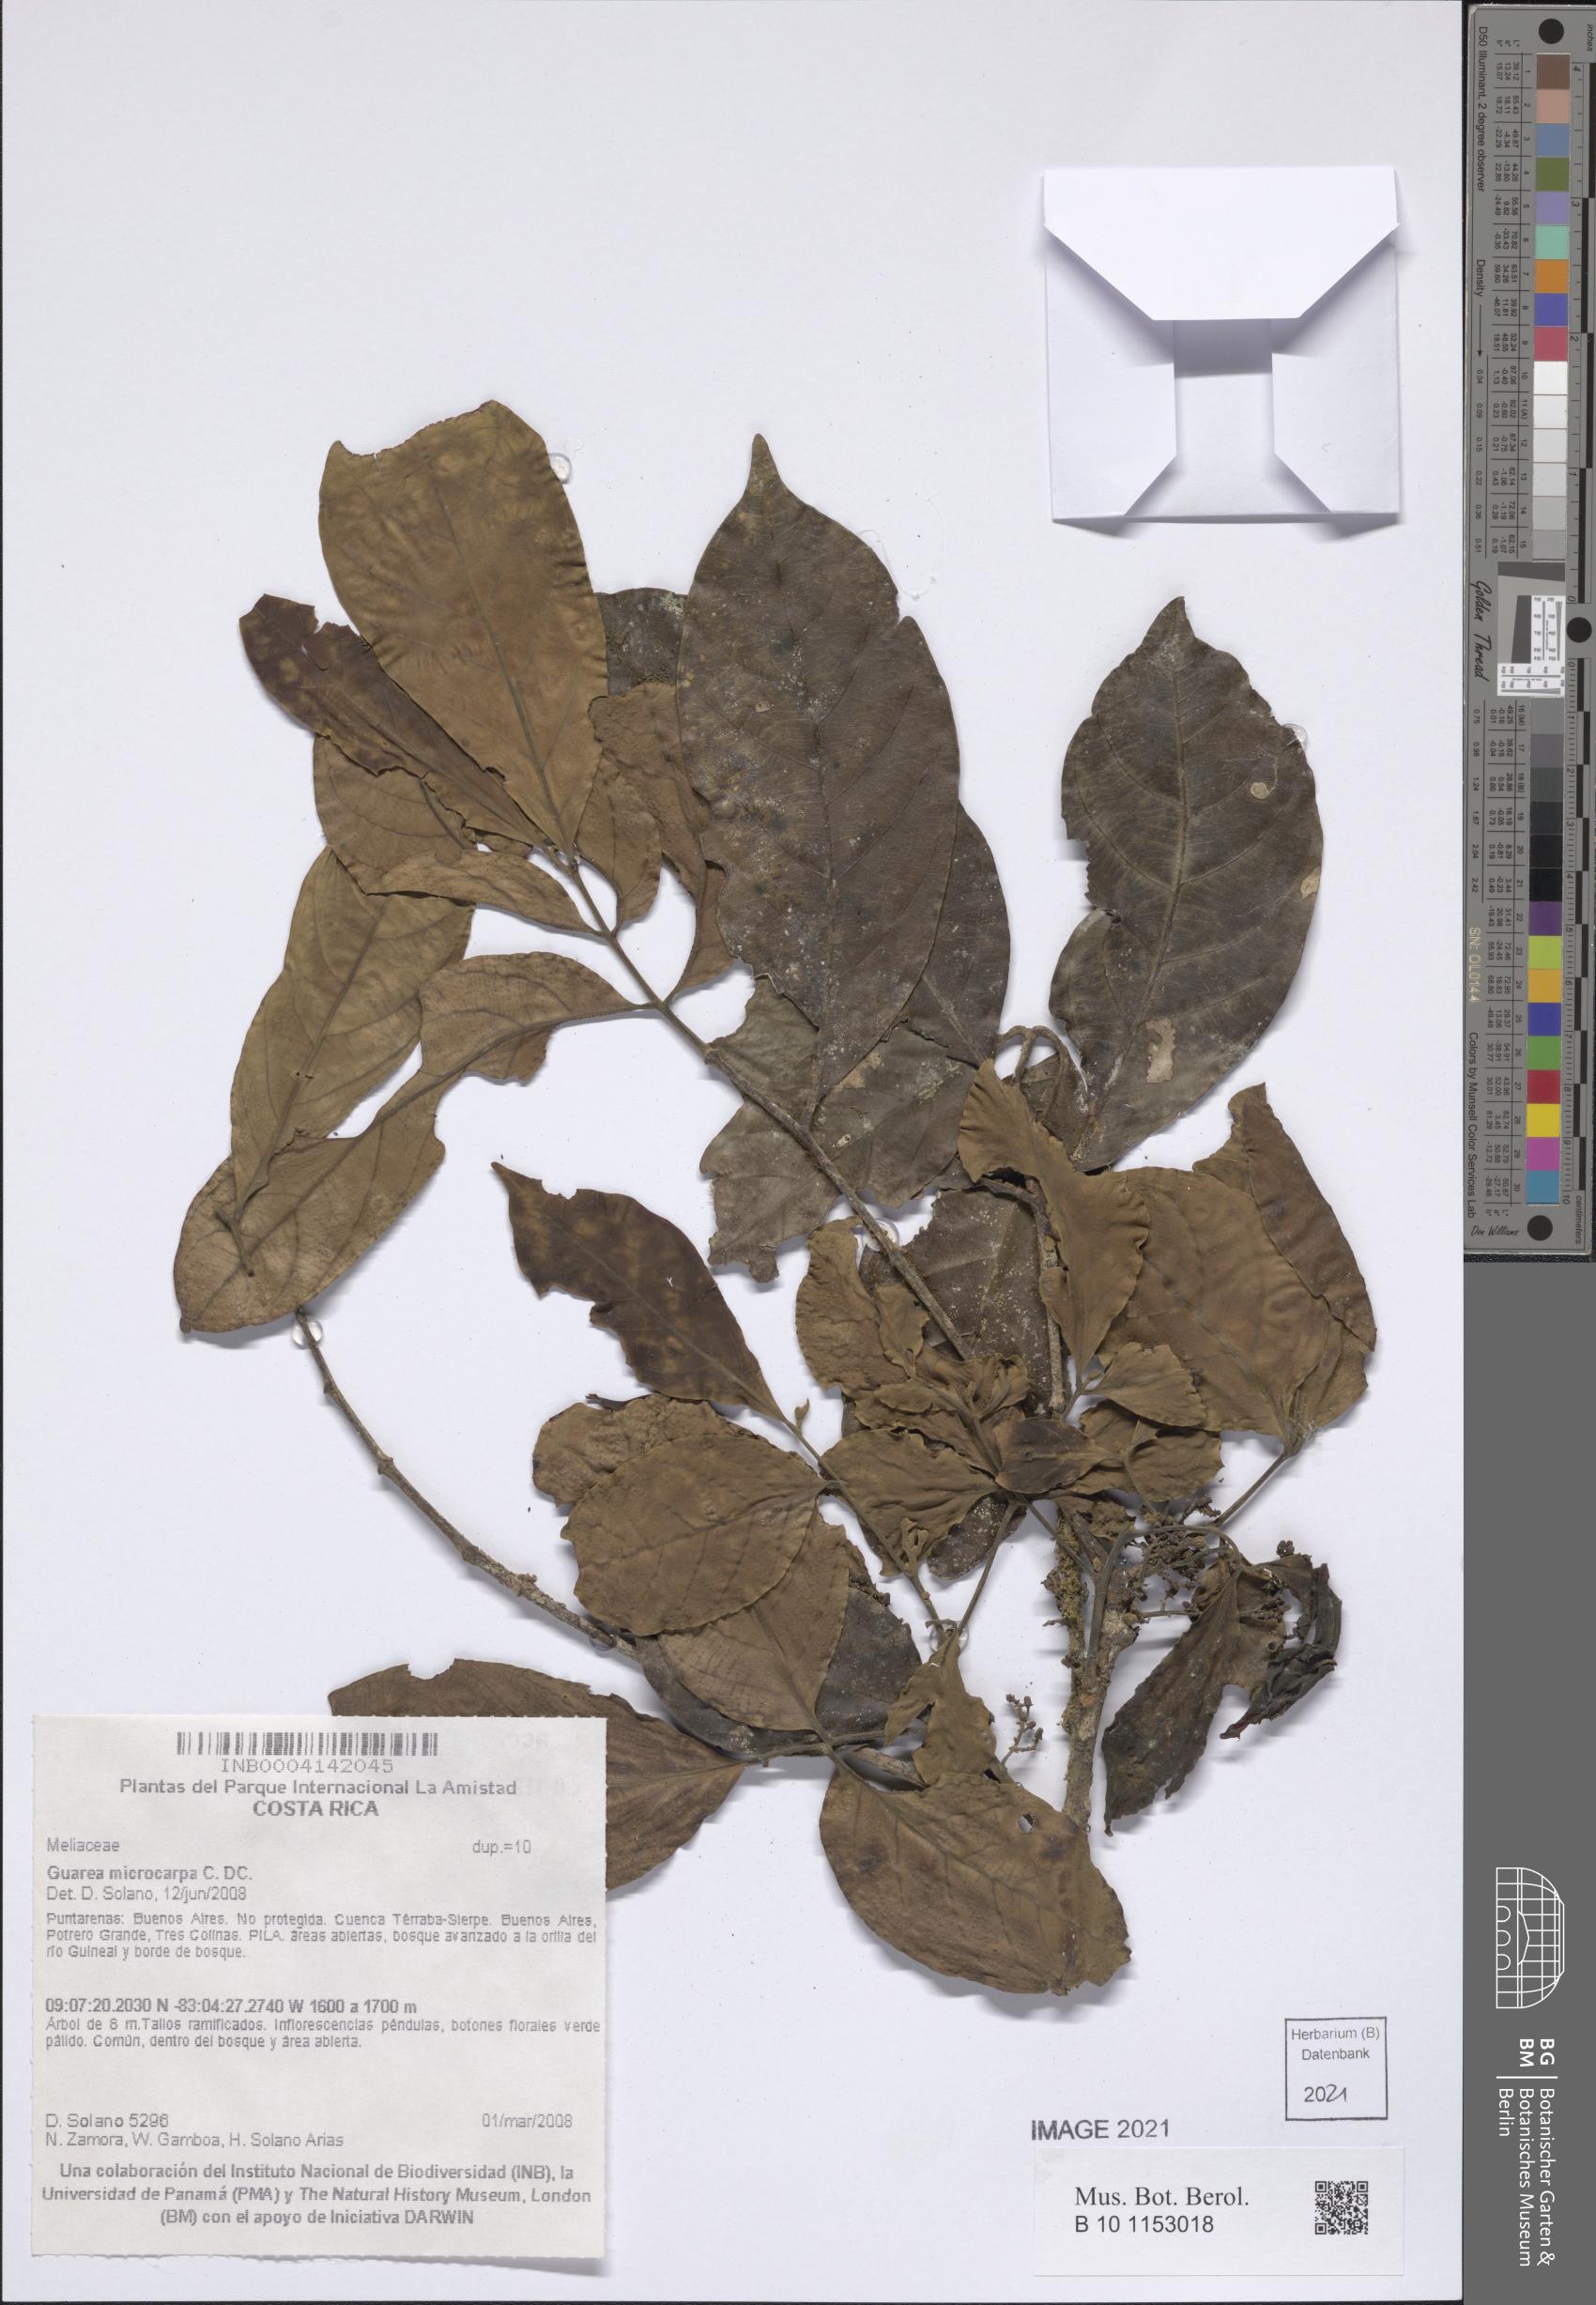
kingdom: Plantae
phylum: Tracheophyta
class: Magnoliopsida
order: Sapindales
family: Meliaceae
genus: Guarea
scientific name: Guarea glabra
